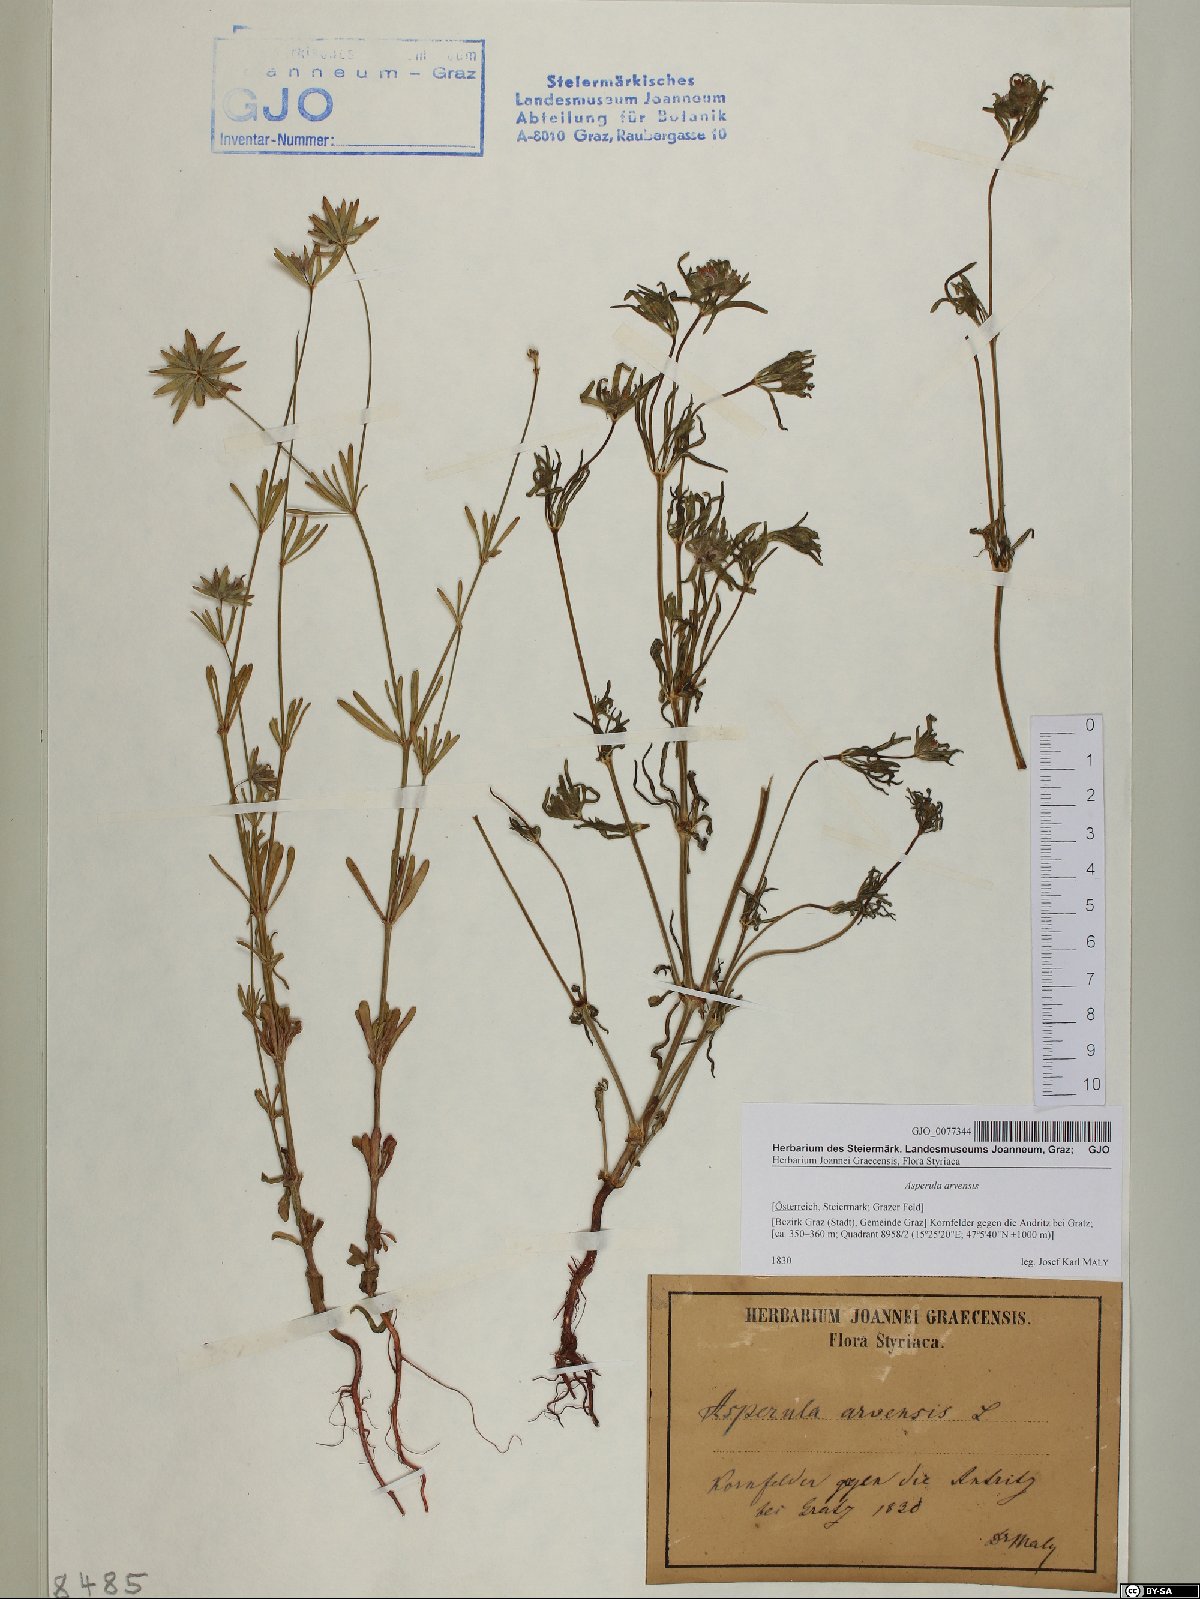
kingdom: Plantae
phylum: Tracheophyta
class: Magnoliopsida
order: Gentianales
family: Rubiaceae
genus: Asperula
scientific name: Asperula arvensis
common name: Blue woodruff
